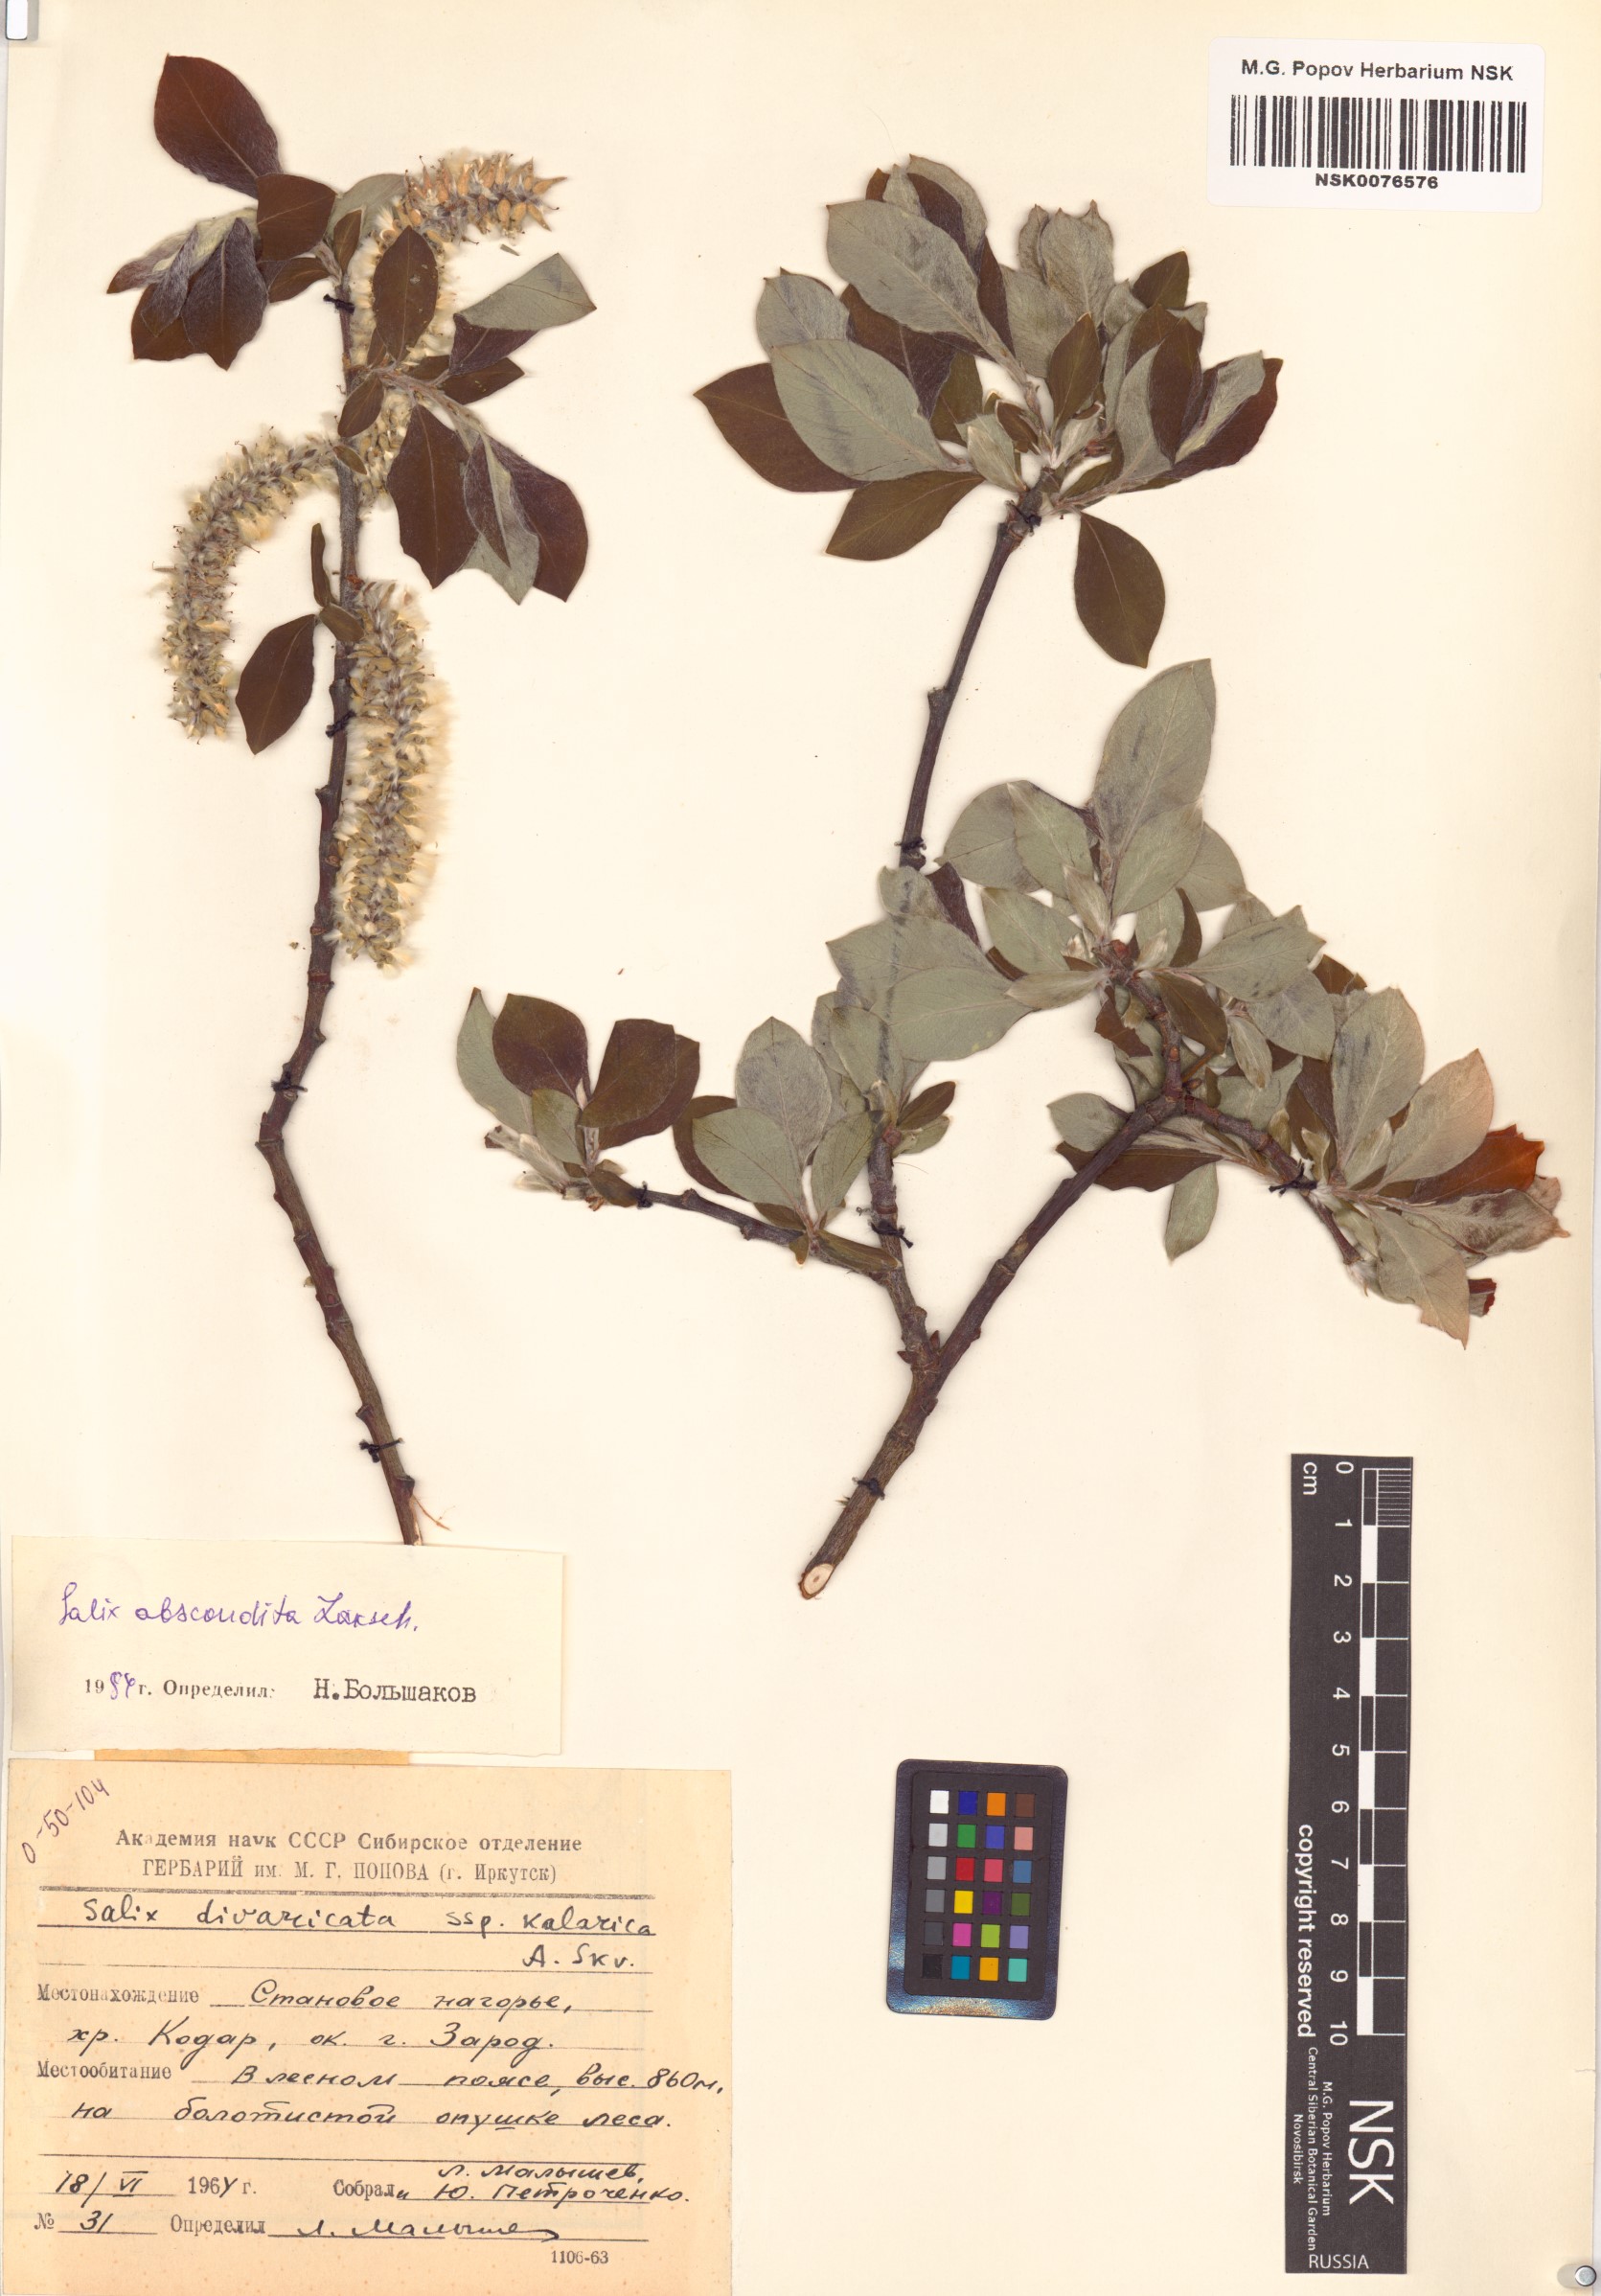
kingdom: Plantae
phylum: Tracheophyta
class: Magnoliopsida
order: Malpighiales
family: Salicaceae
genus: Salix
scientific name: Salix abscondita
